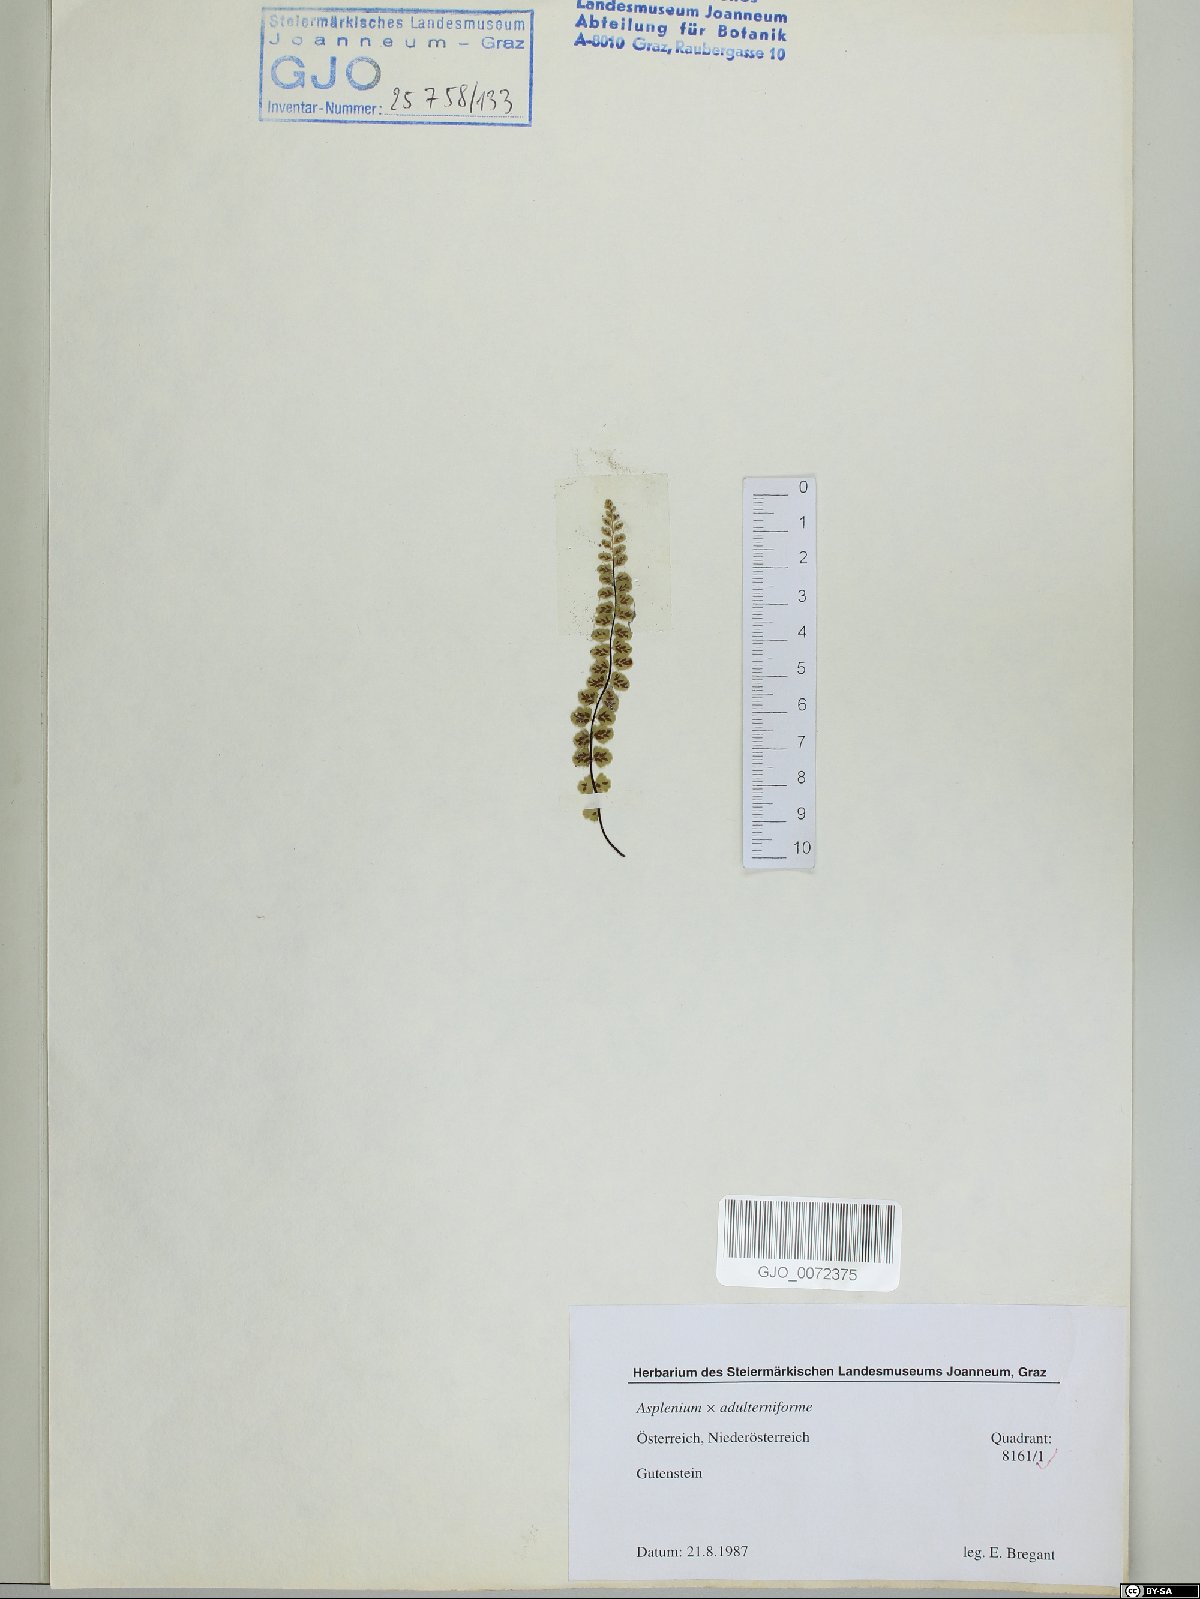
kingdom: Plantae
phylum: Tracheophyta
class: Polypodiopsida
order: Polypodiales
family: Aspleniaceae
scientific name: Aspleniaceae
